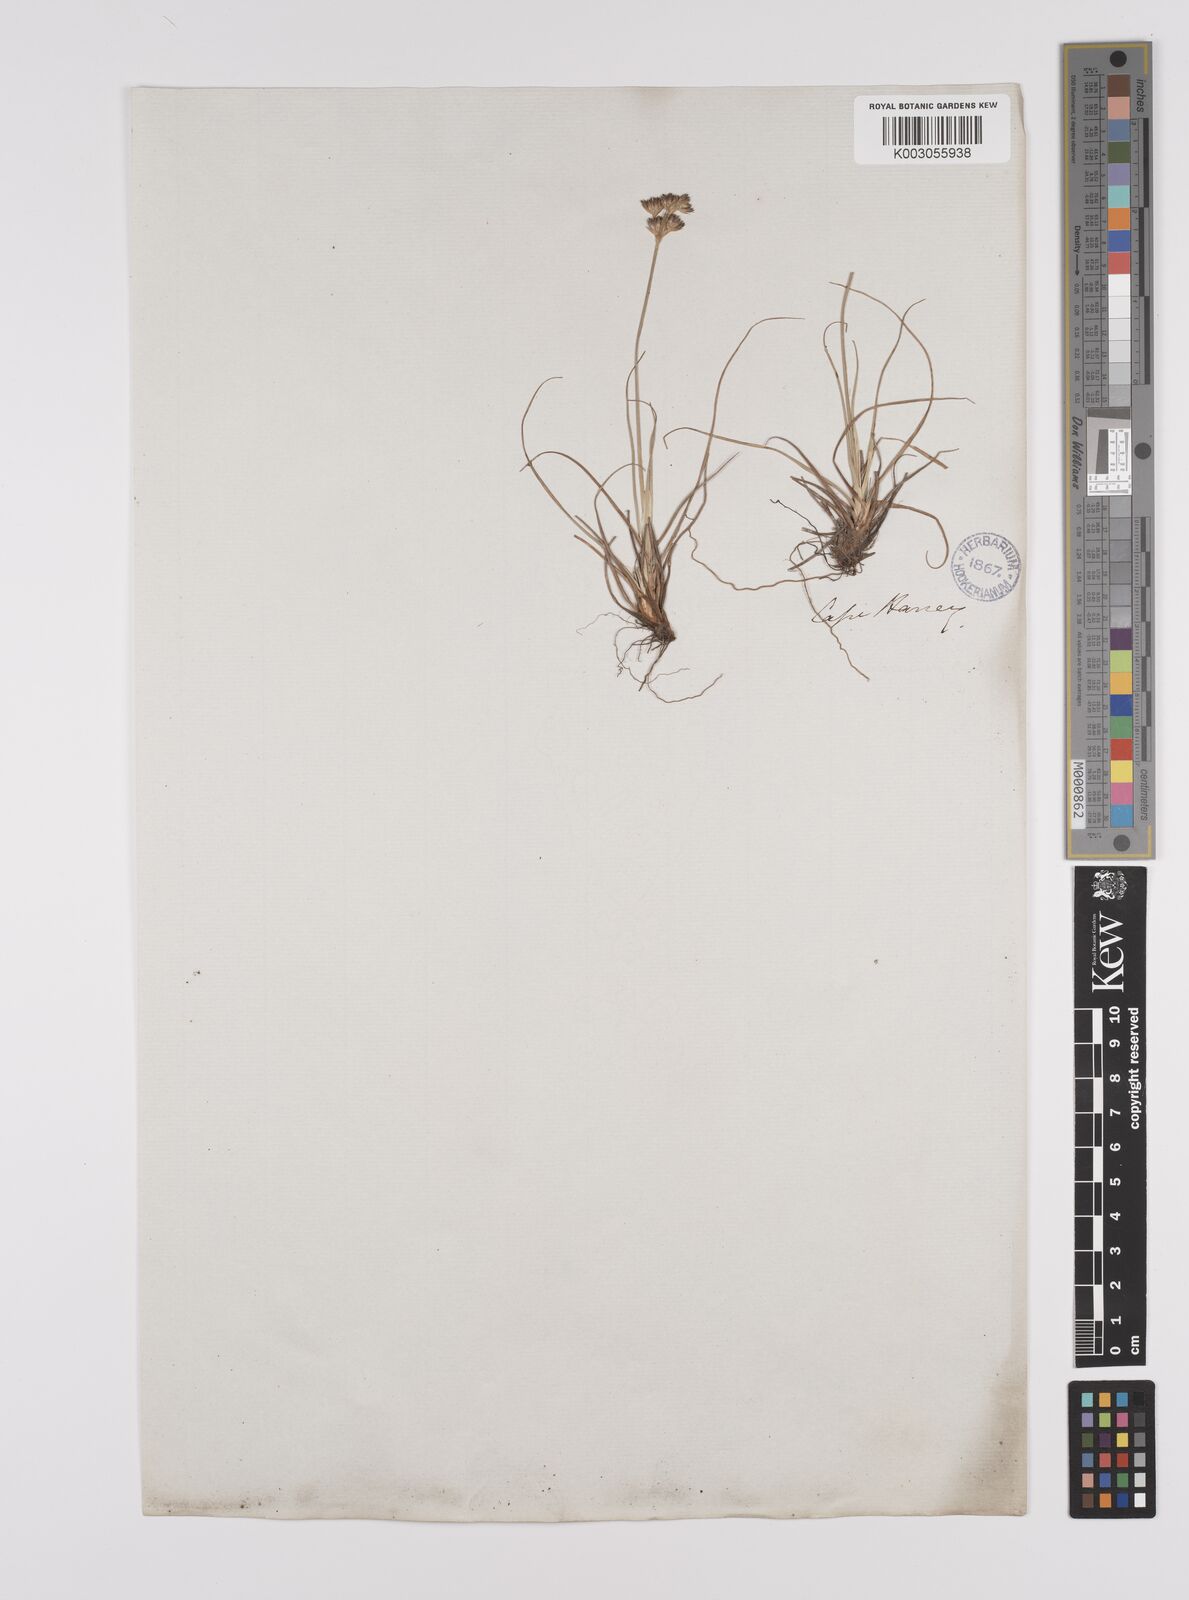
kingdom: Plantae
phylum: Tracheophyta
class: Liliopsida
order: Poales
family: Juncaceae
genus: Juncus
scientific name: Juncus capensis
